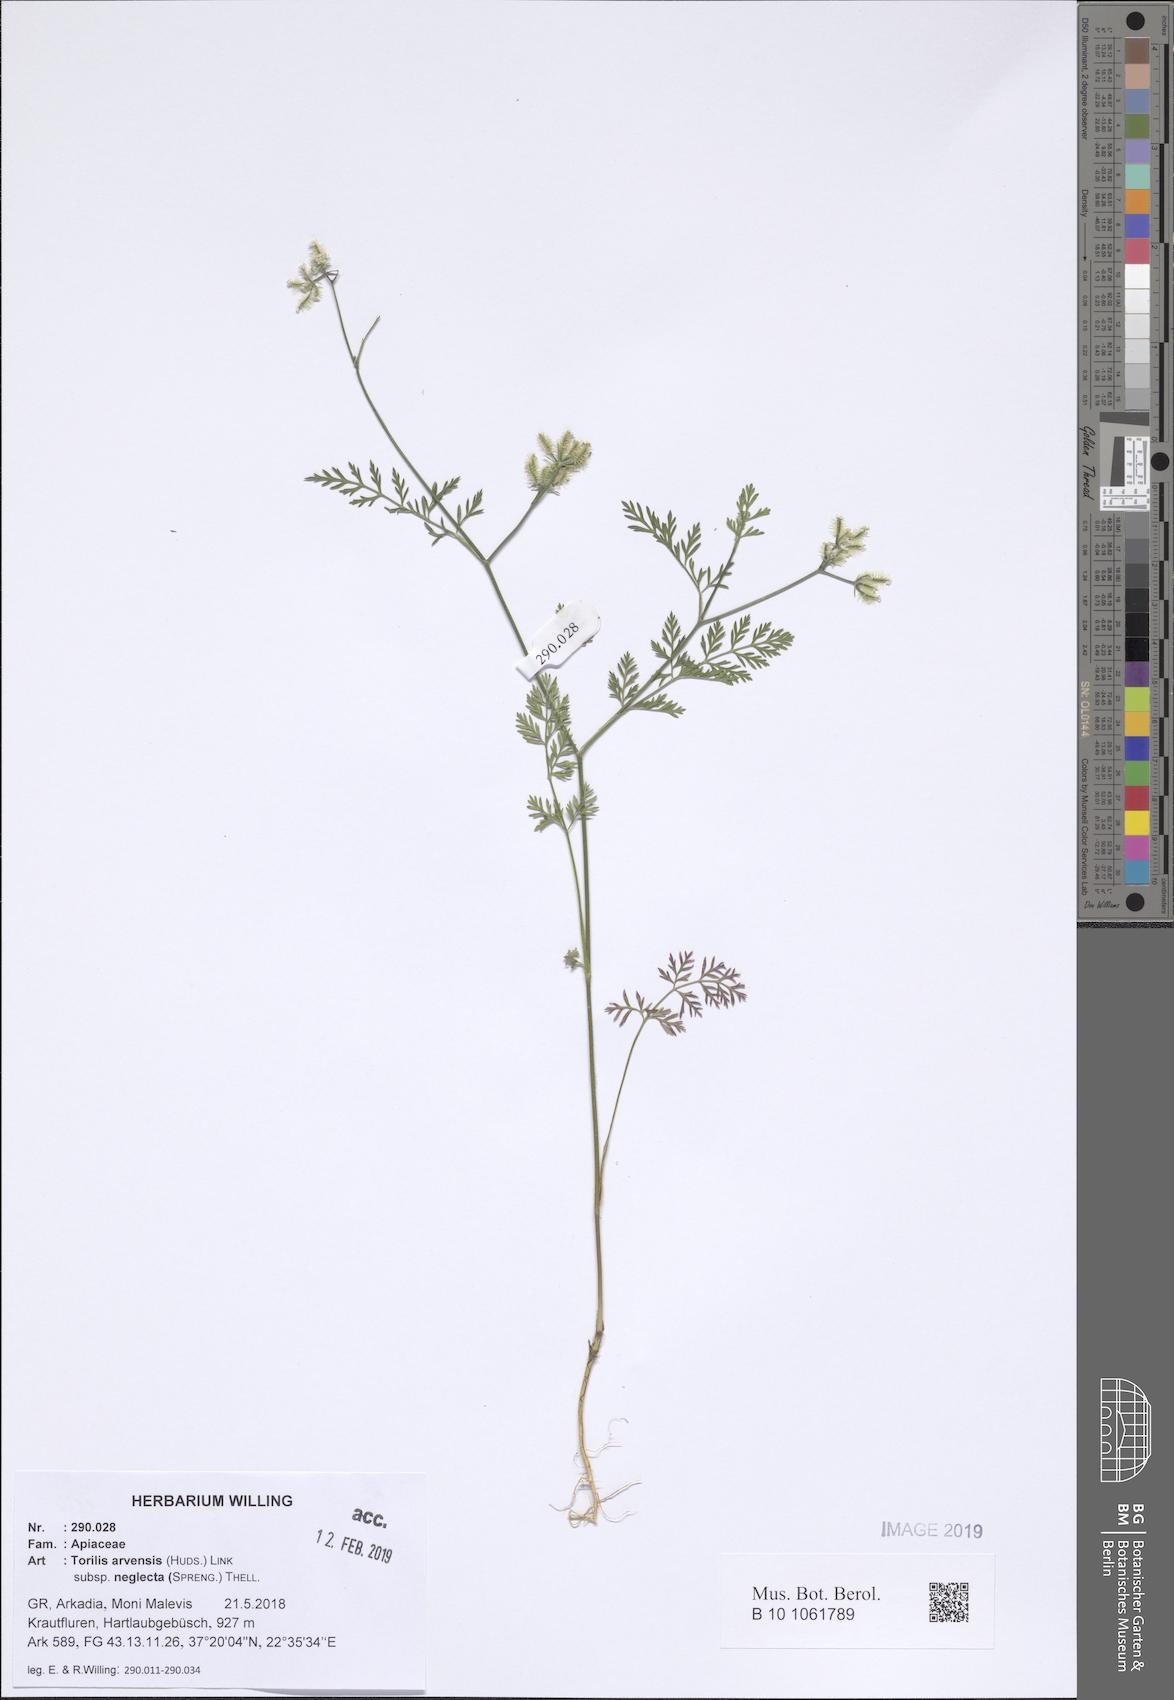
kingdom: Plantae
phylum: Tracheophyta
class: Magnoliopsida
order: Apiales
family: Apiaceae
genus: Torilis
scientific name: Torilis arvensis
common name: Spreading hedge-parsley
